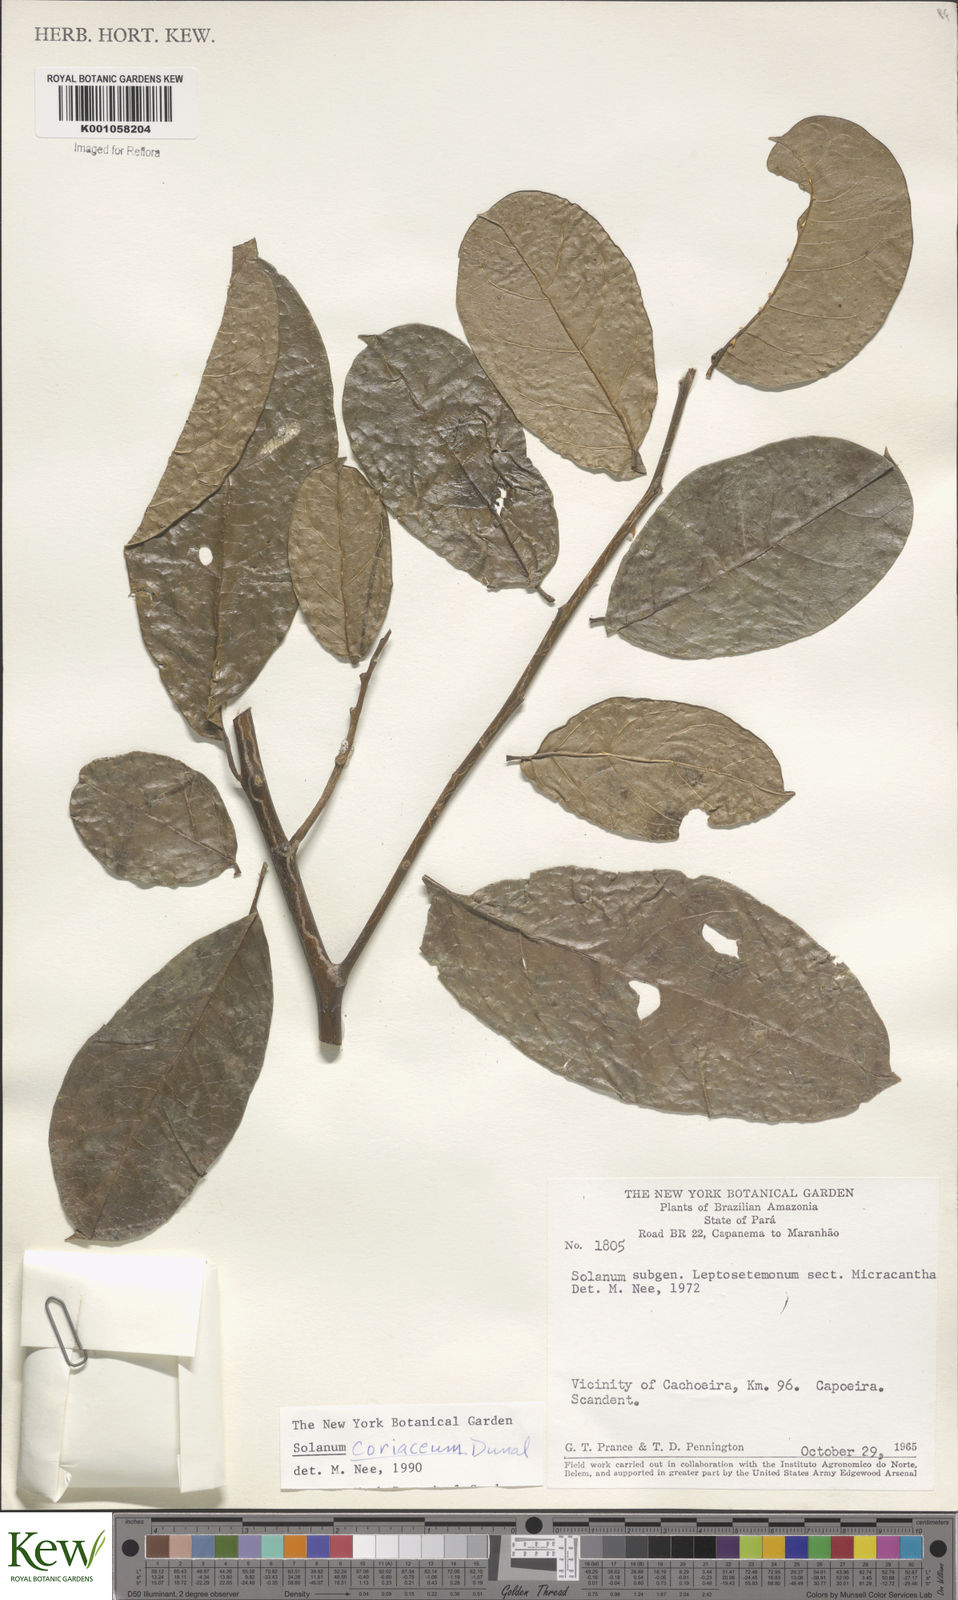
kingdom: Plantae
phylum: Tracheophyta
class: Magnoliopsida
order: Solanales
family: Solanaceae
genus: Solanum
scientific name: Solanum coriaceum
